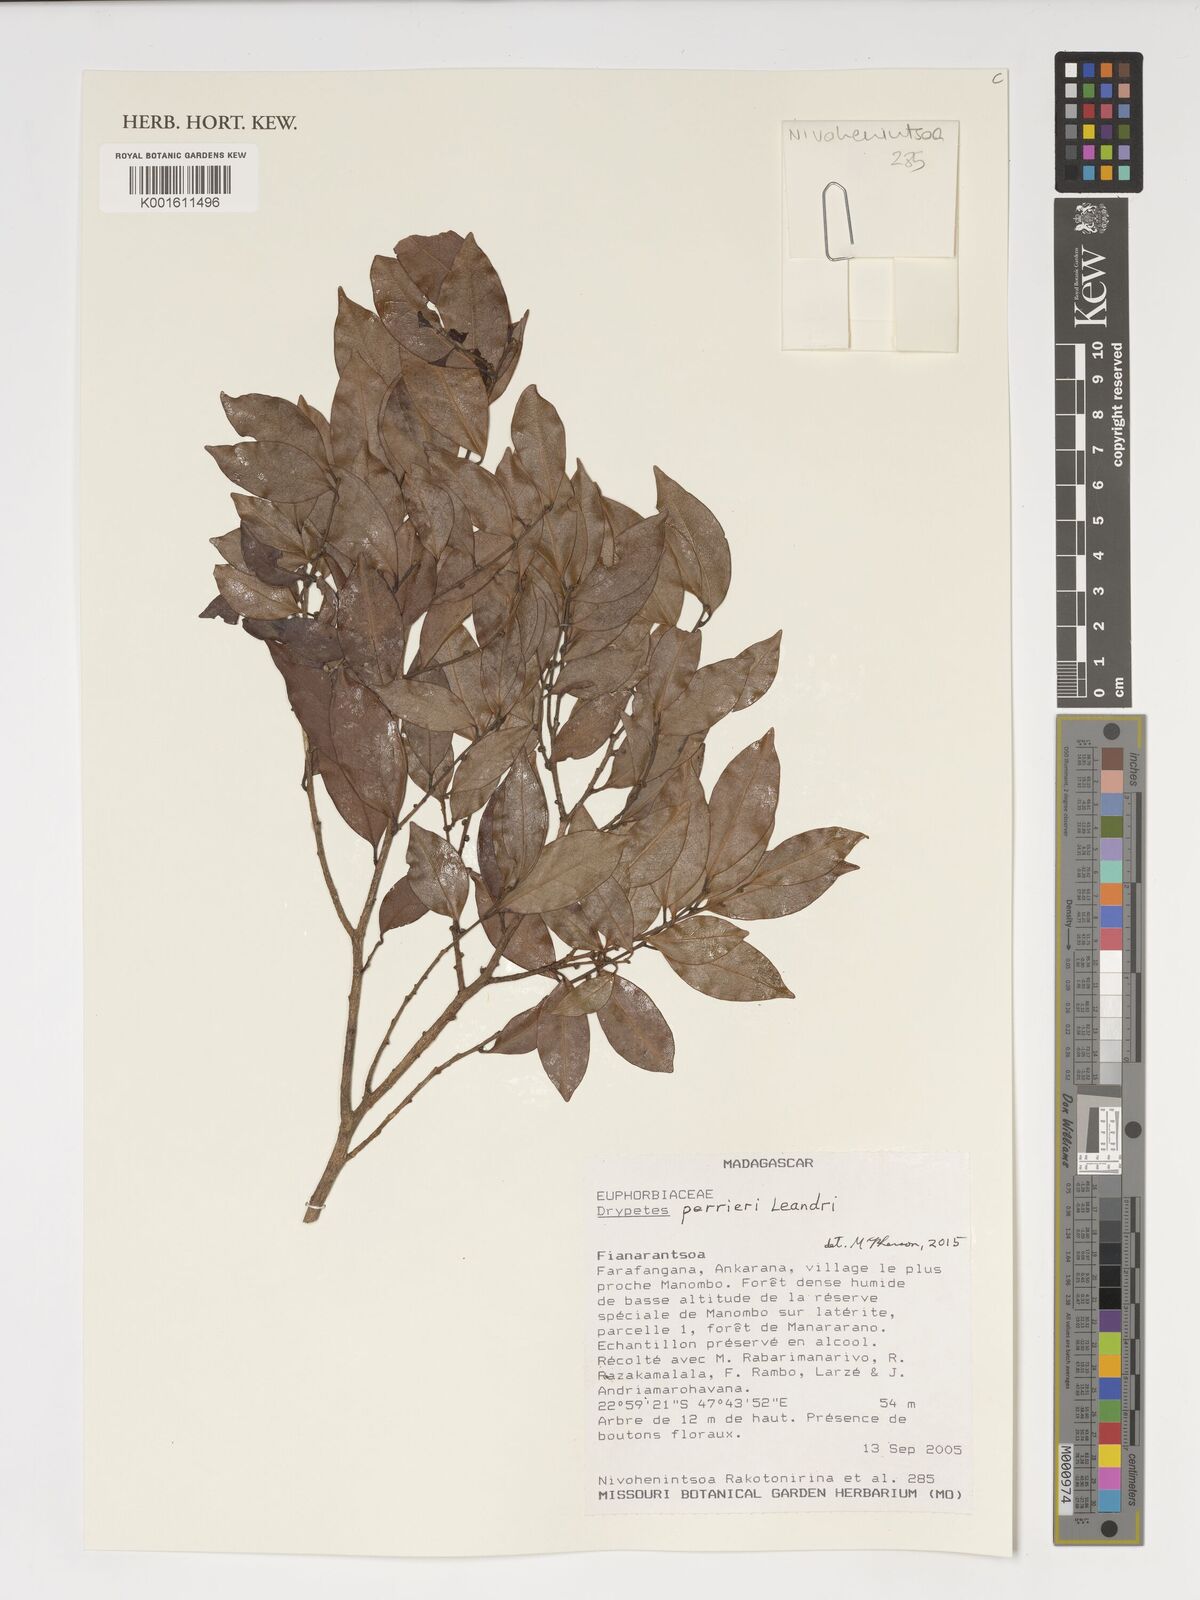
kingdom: Plantae
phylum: Tracheophyta
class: Magnoliopsida
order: Malpighiales
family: Putranjivaceae
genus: Drypetes
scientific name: Drypetes perrieri
